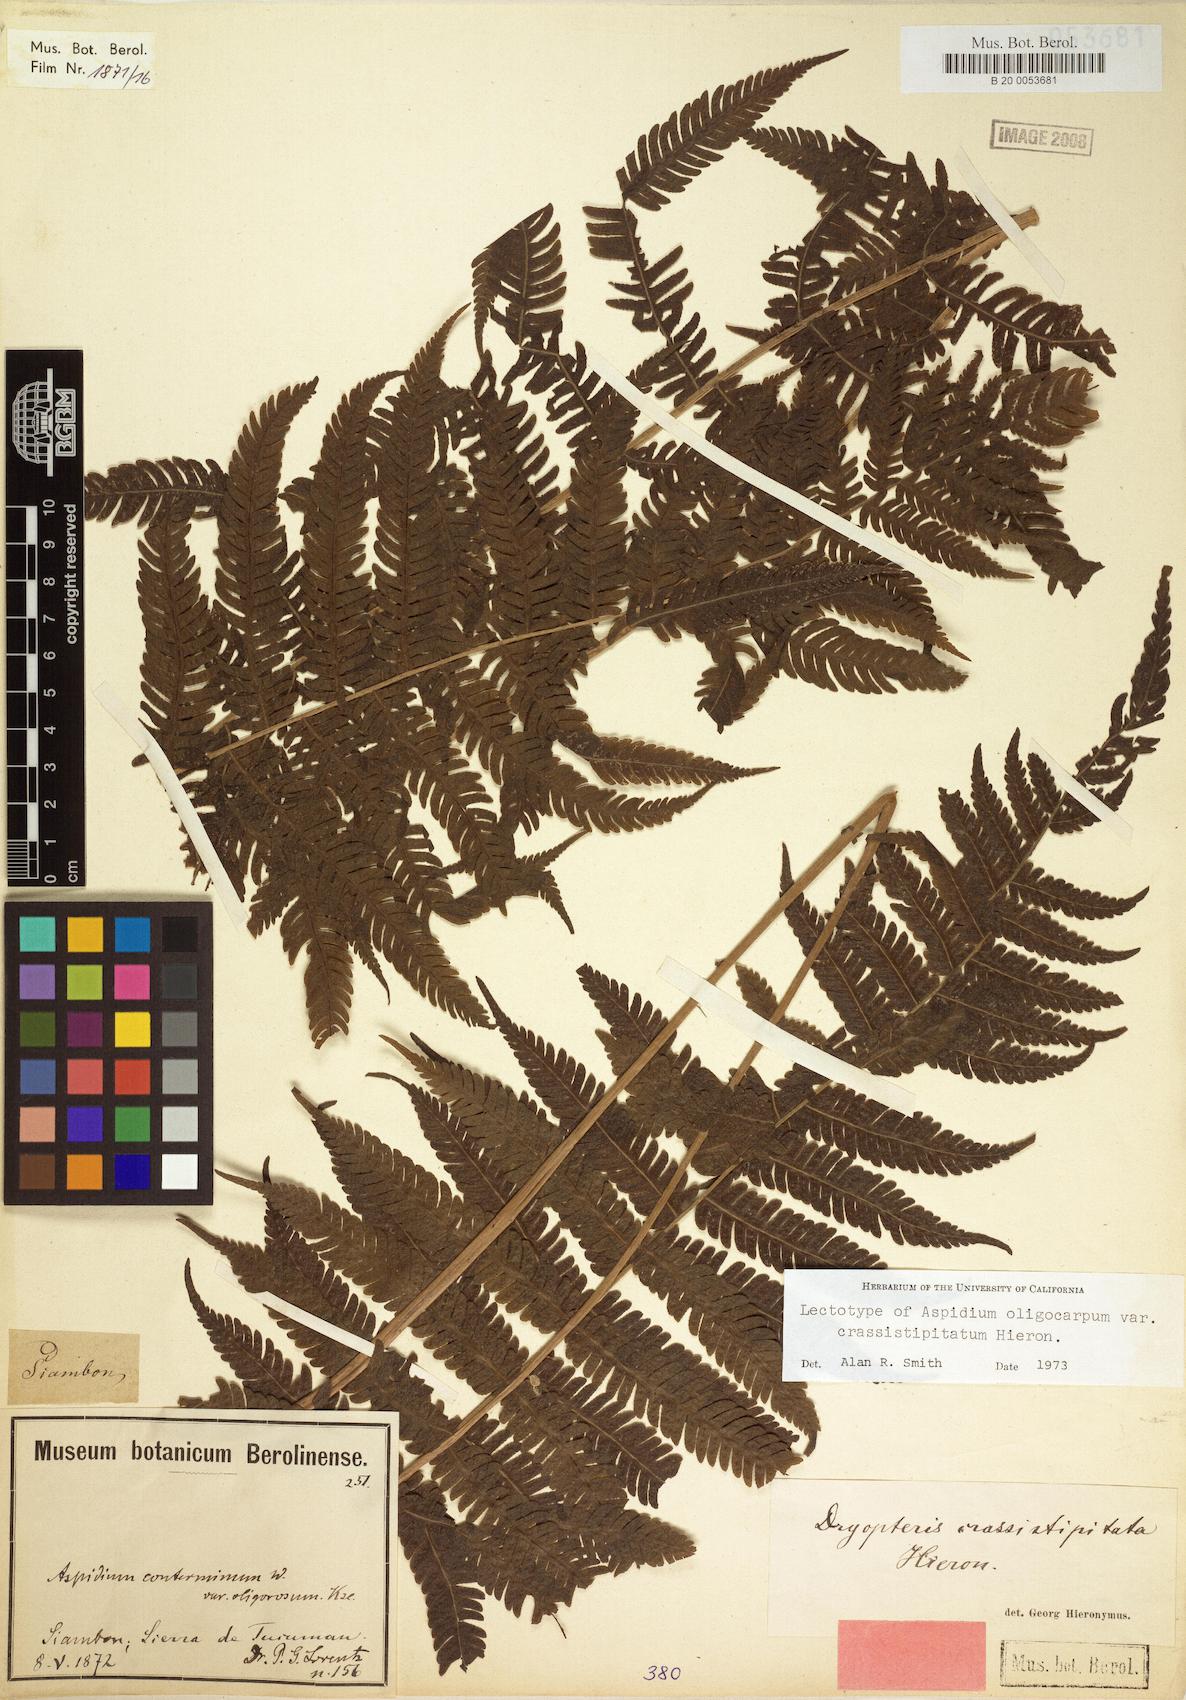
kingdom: Plantae
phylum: Tracheophyta
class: Polypodiopsida
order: Polypodiales
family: Thelypteridaceae
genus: Amauropelta
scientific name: Amauropelta oligocarpa
